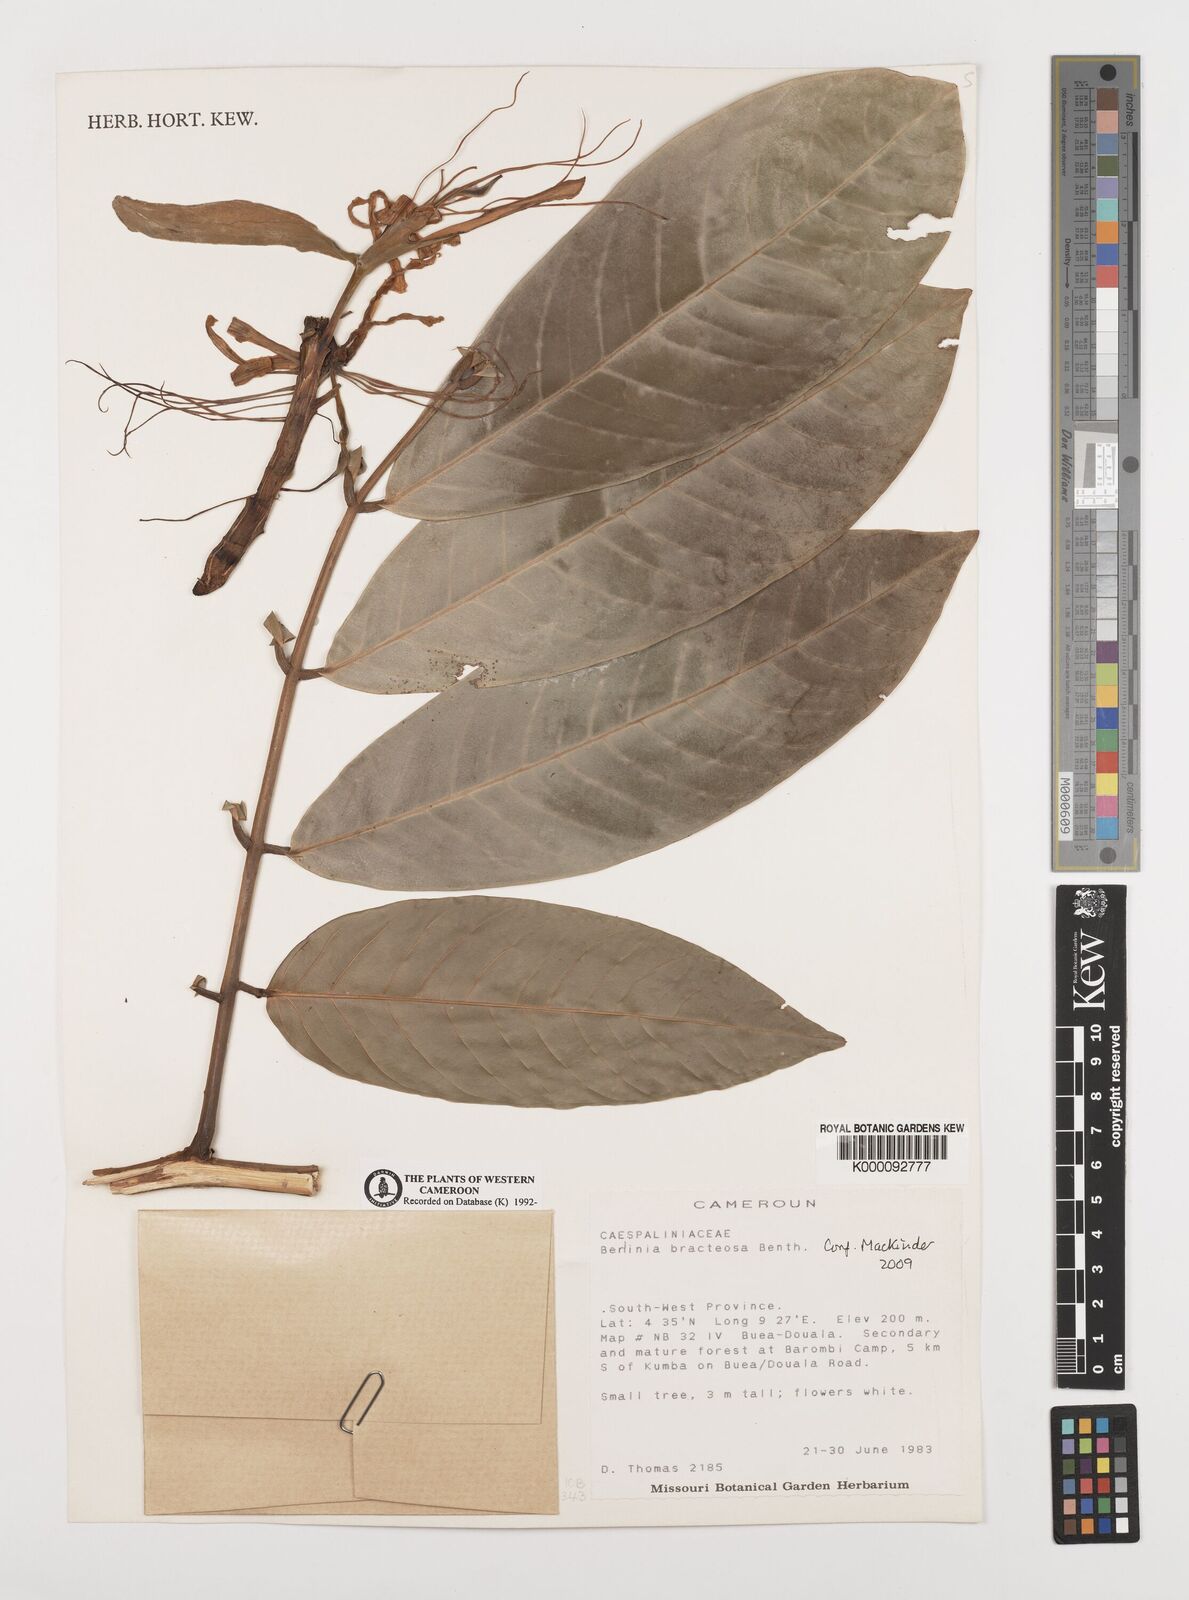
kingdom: Plantae
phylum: Tracheophyta
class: Magnoliopsida
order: Fabales
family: Fabaceae
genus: Berlinia
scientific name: Berlinia bracteosa
